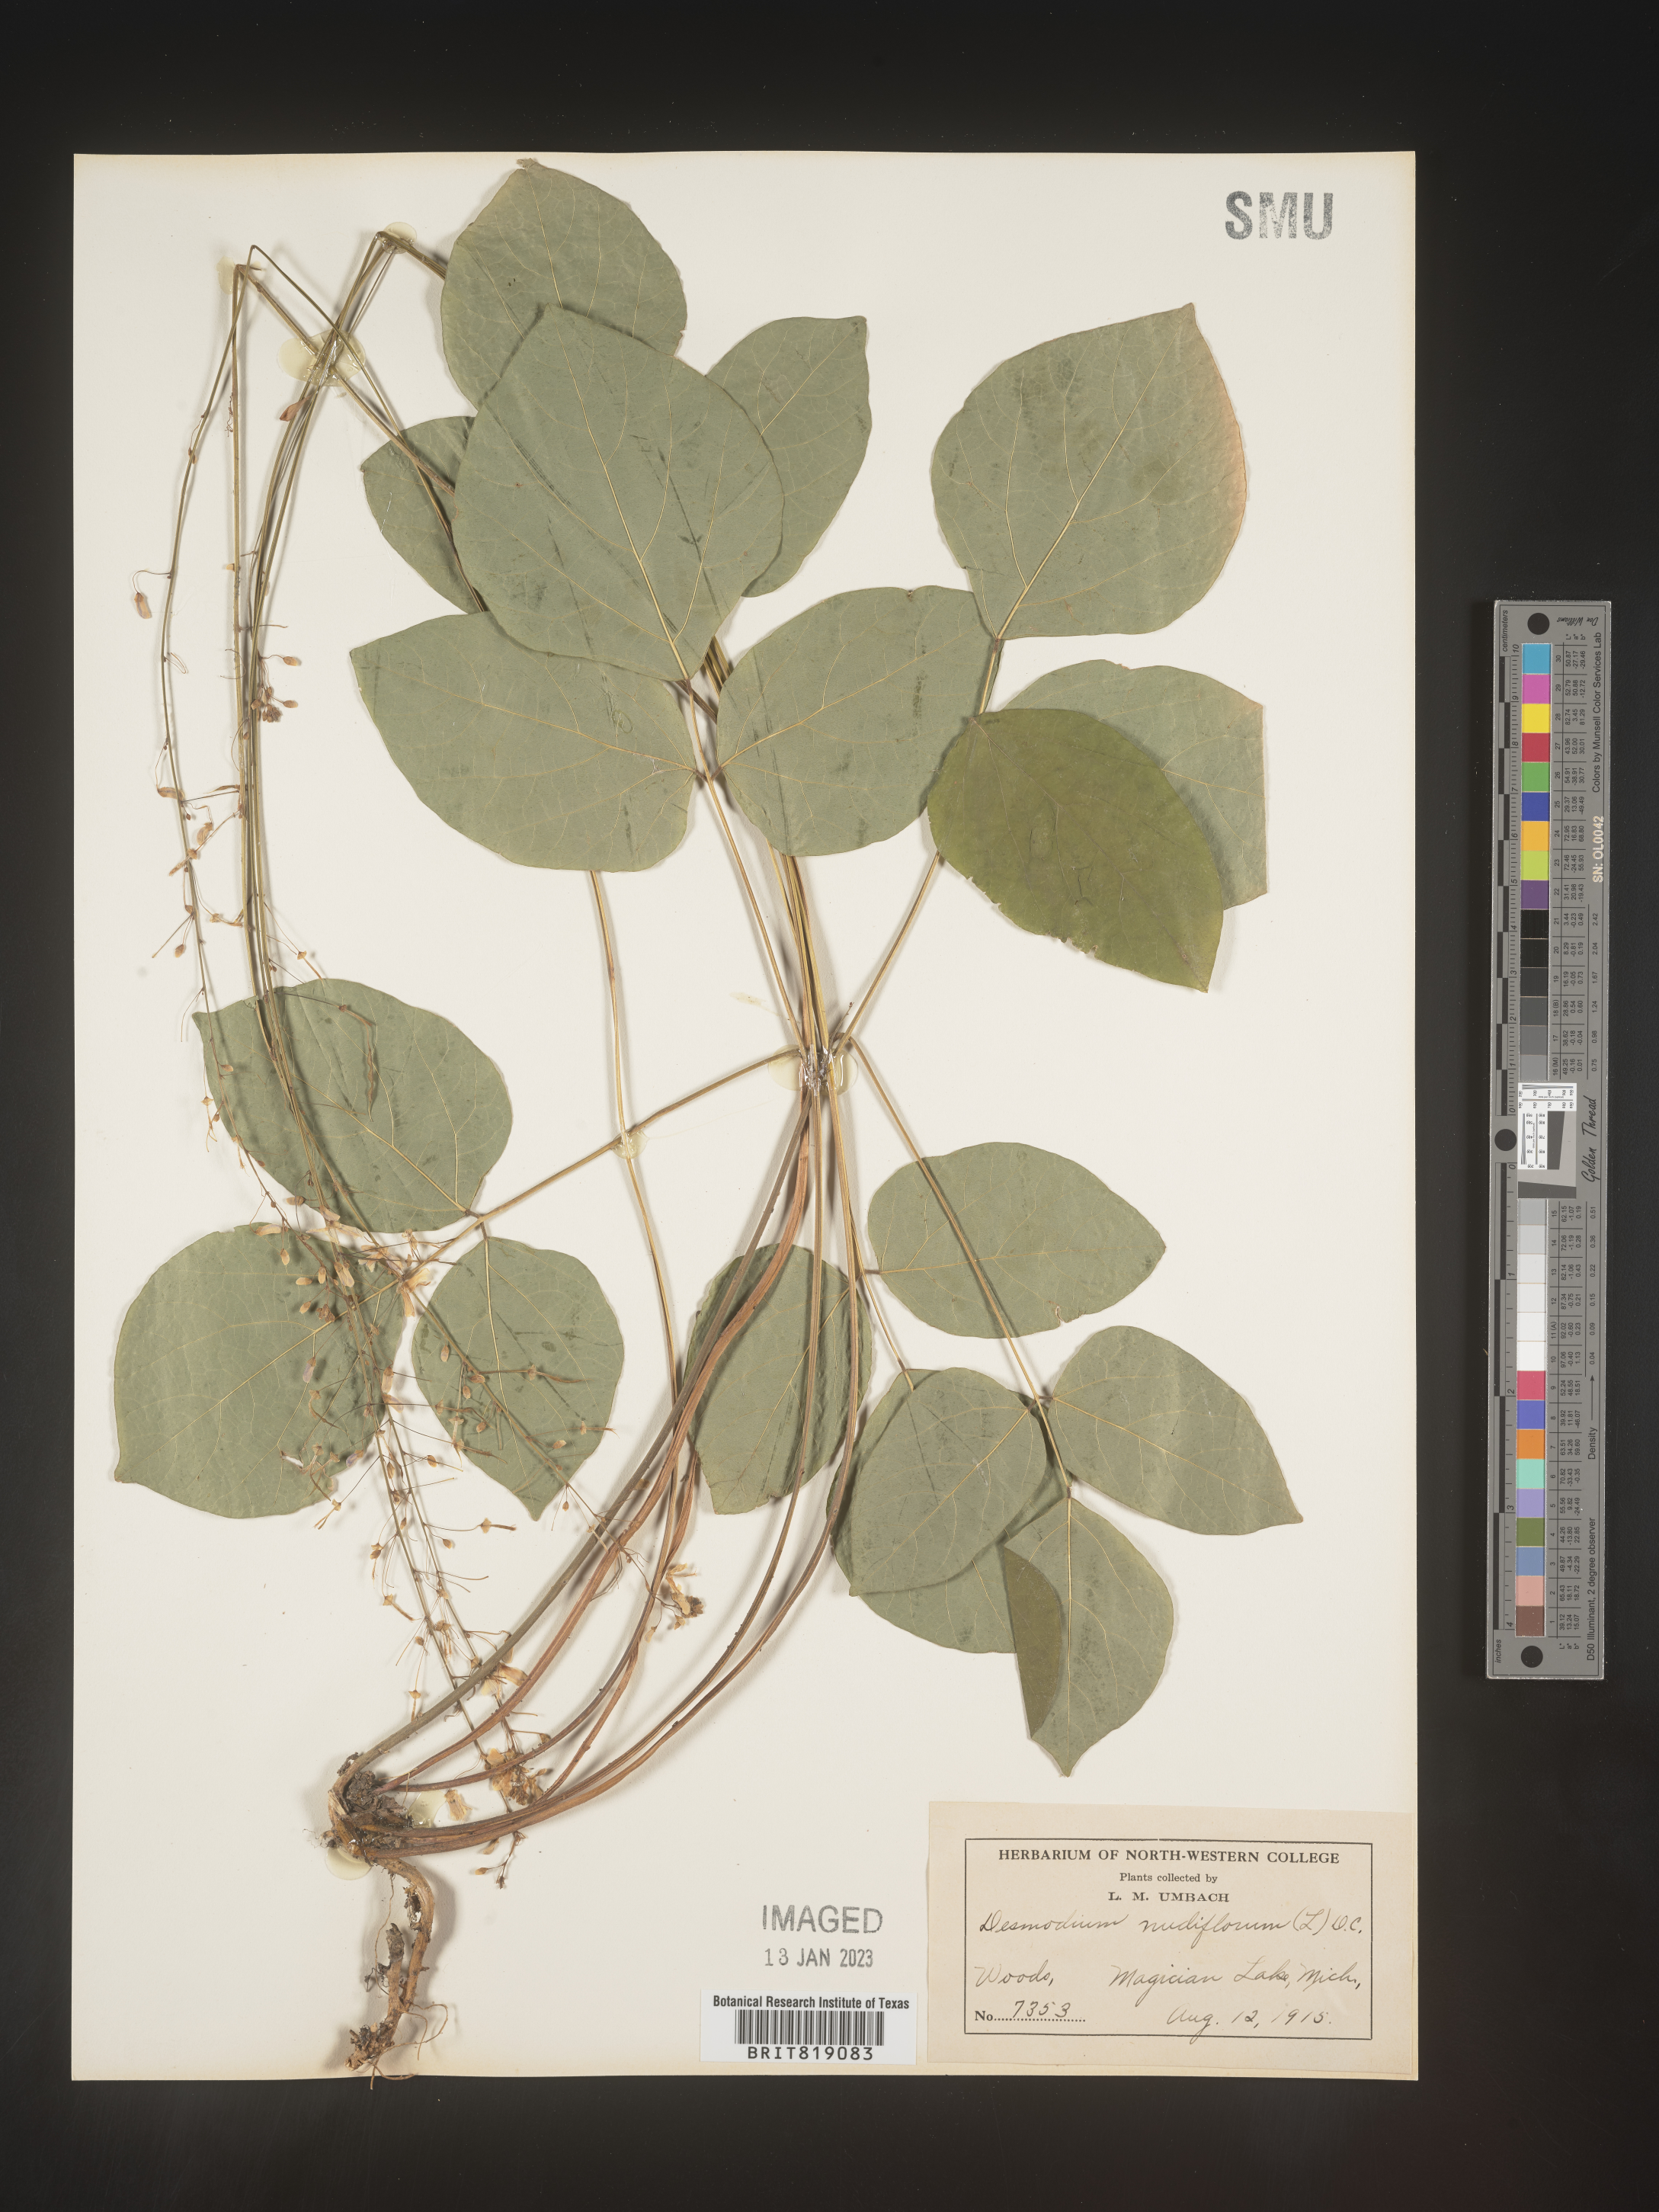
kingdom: Plantae
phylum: Tracheophyta
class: Magnoliopsida
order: Fabales
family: Fabaceae
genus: Hylodesmum
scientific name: Hylodesmum nudiflorum
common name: Bare-stemmed tick-trefoil
